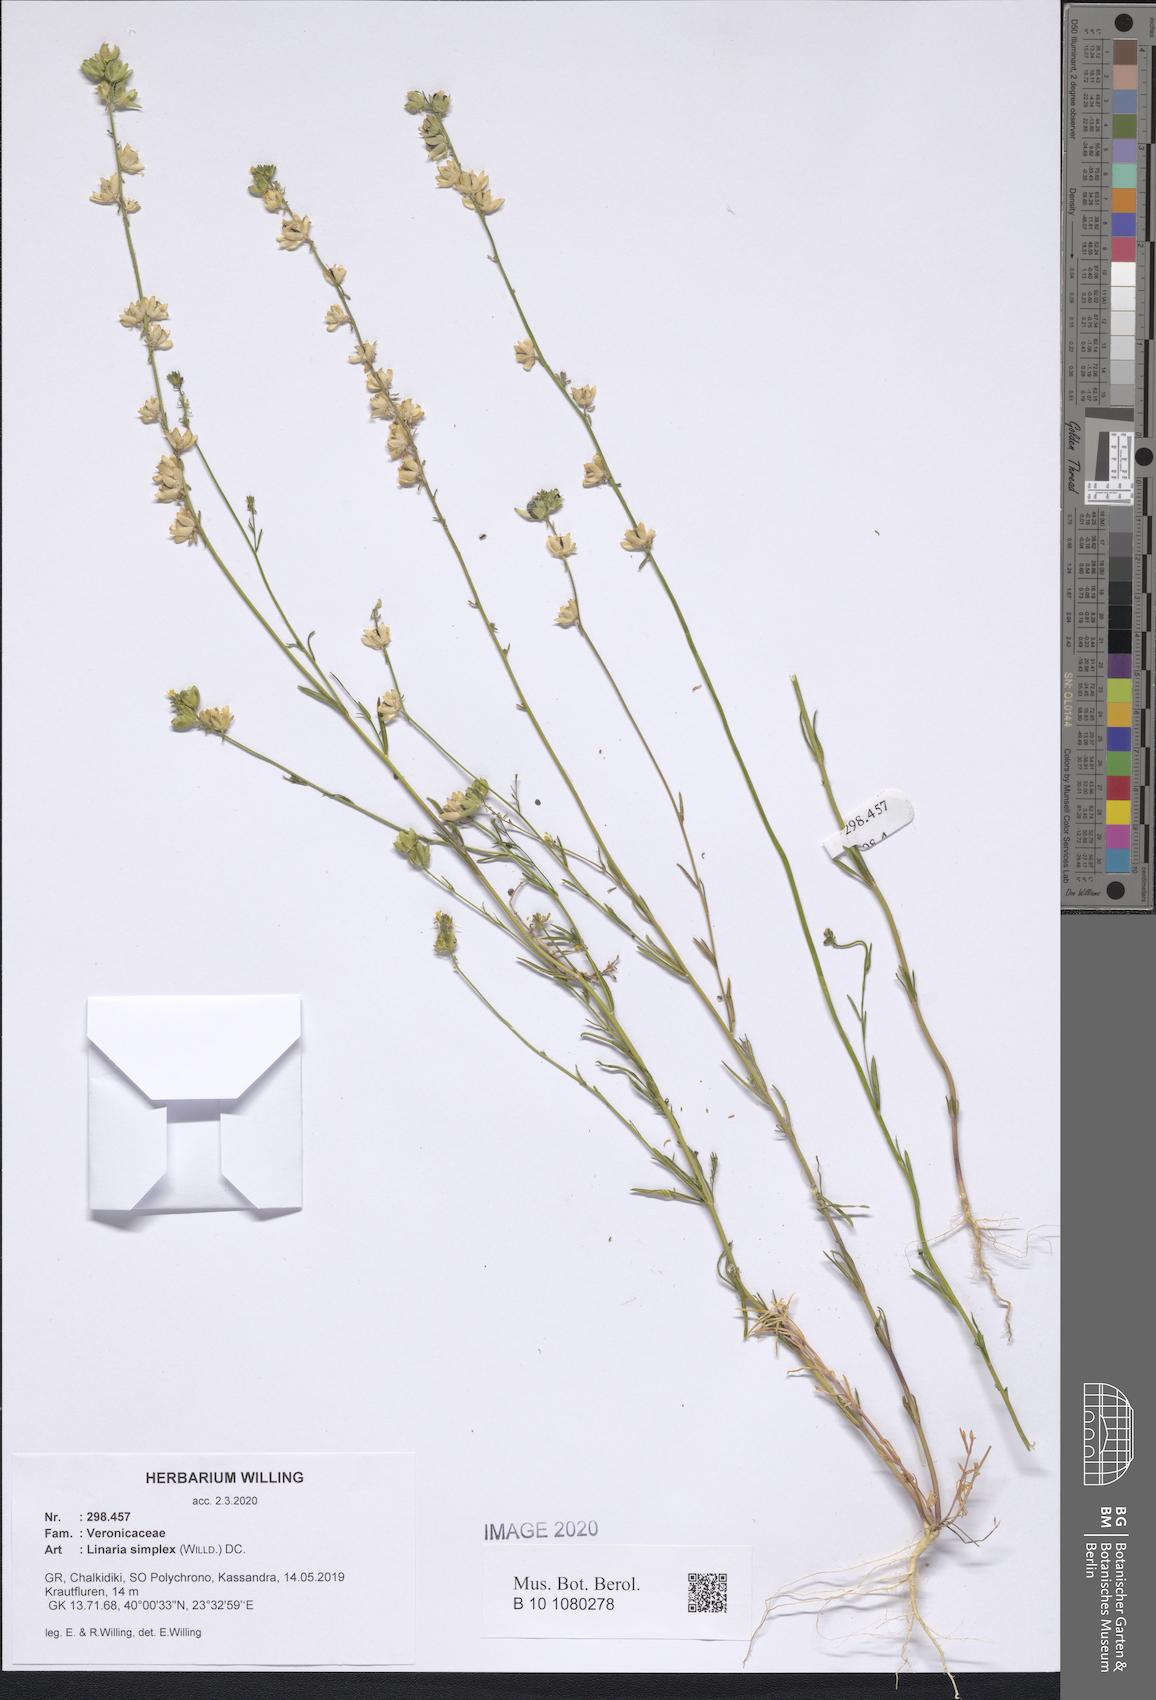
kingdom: Plantae
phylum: Tracheophyta
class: Magnoliopsida
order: Lamiales
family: Plantaginaceae
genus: Linaria
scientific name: Linaria simplex
